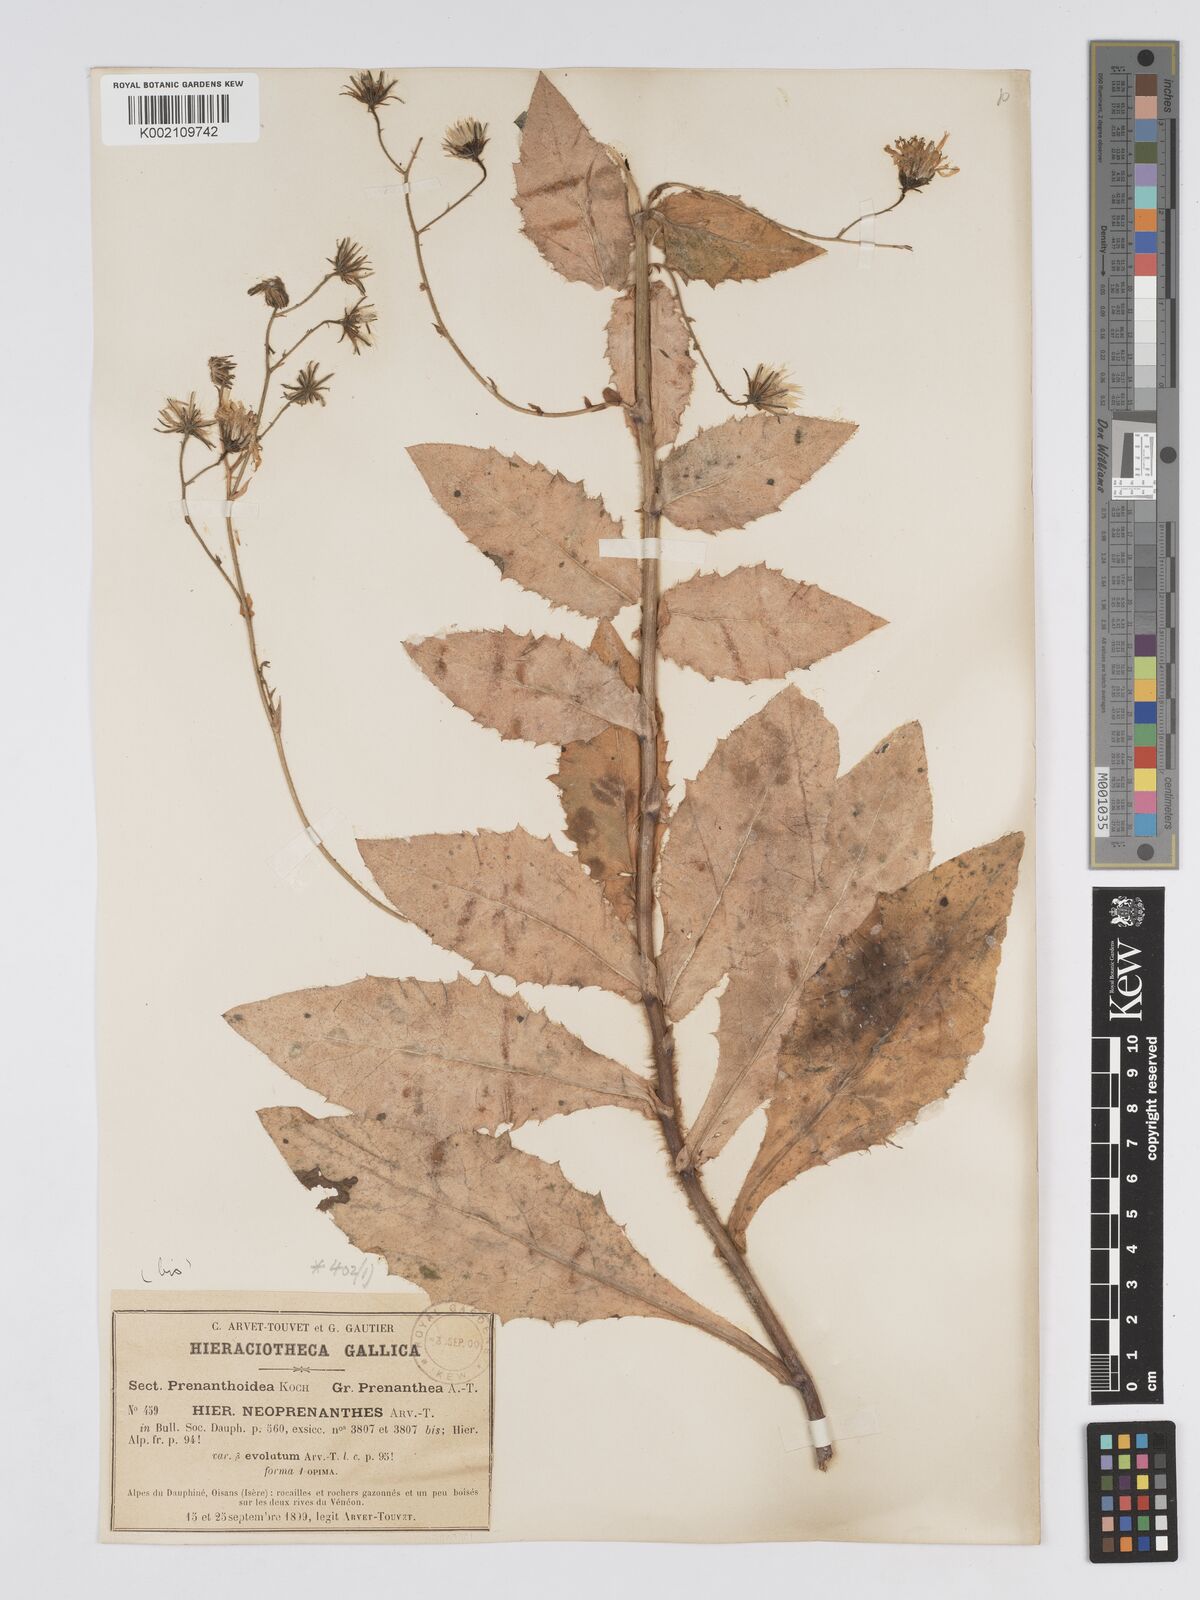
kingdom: Plantae
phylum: Tracheophyta
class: Magnoliopsida
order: Asterales
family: Asteraceae
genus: Hieracium
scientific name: Hieracium symphytaceum
